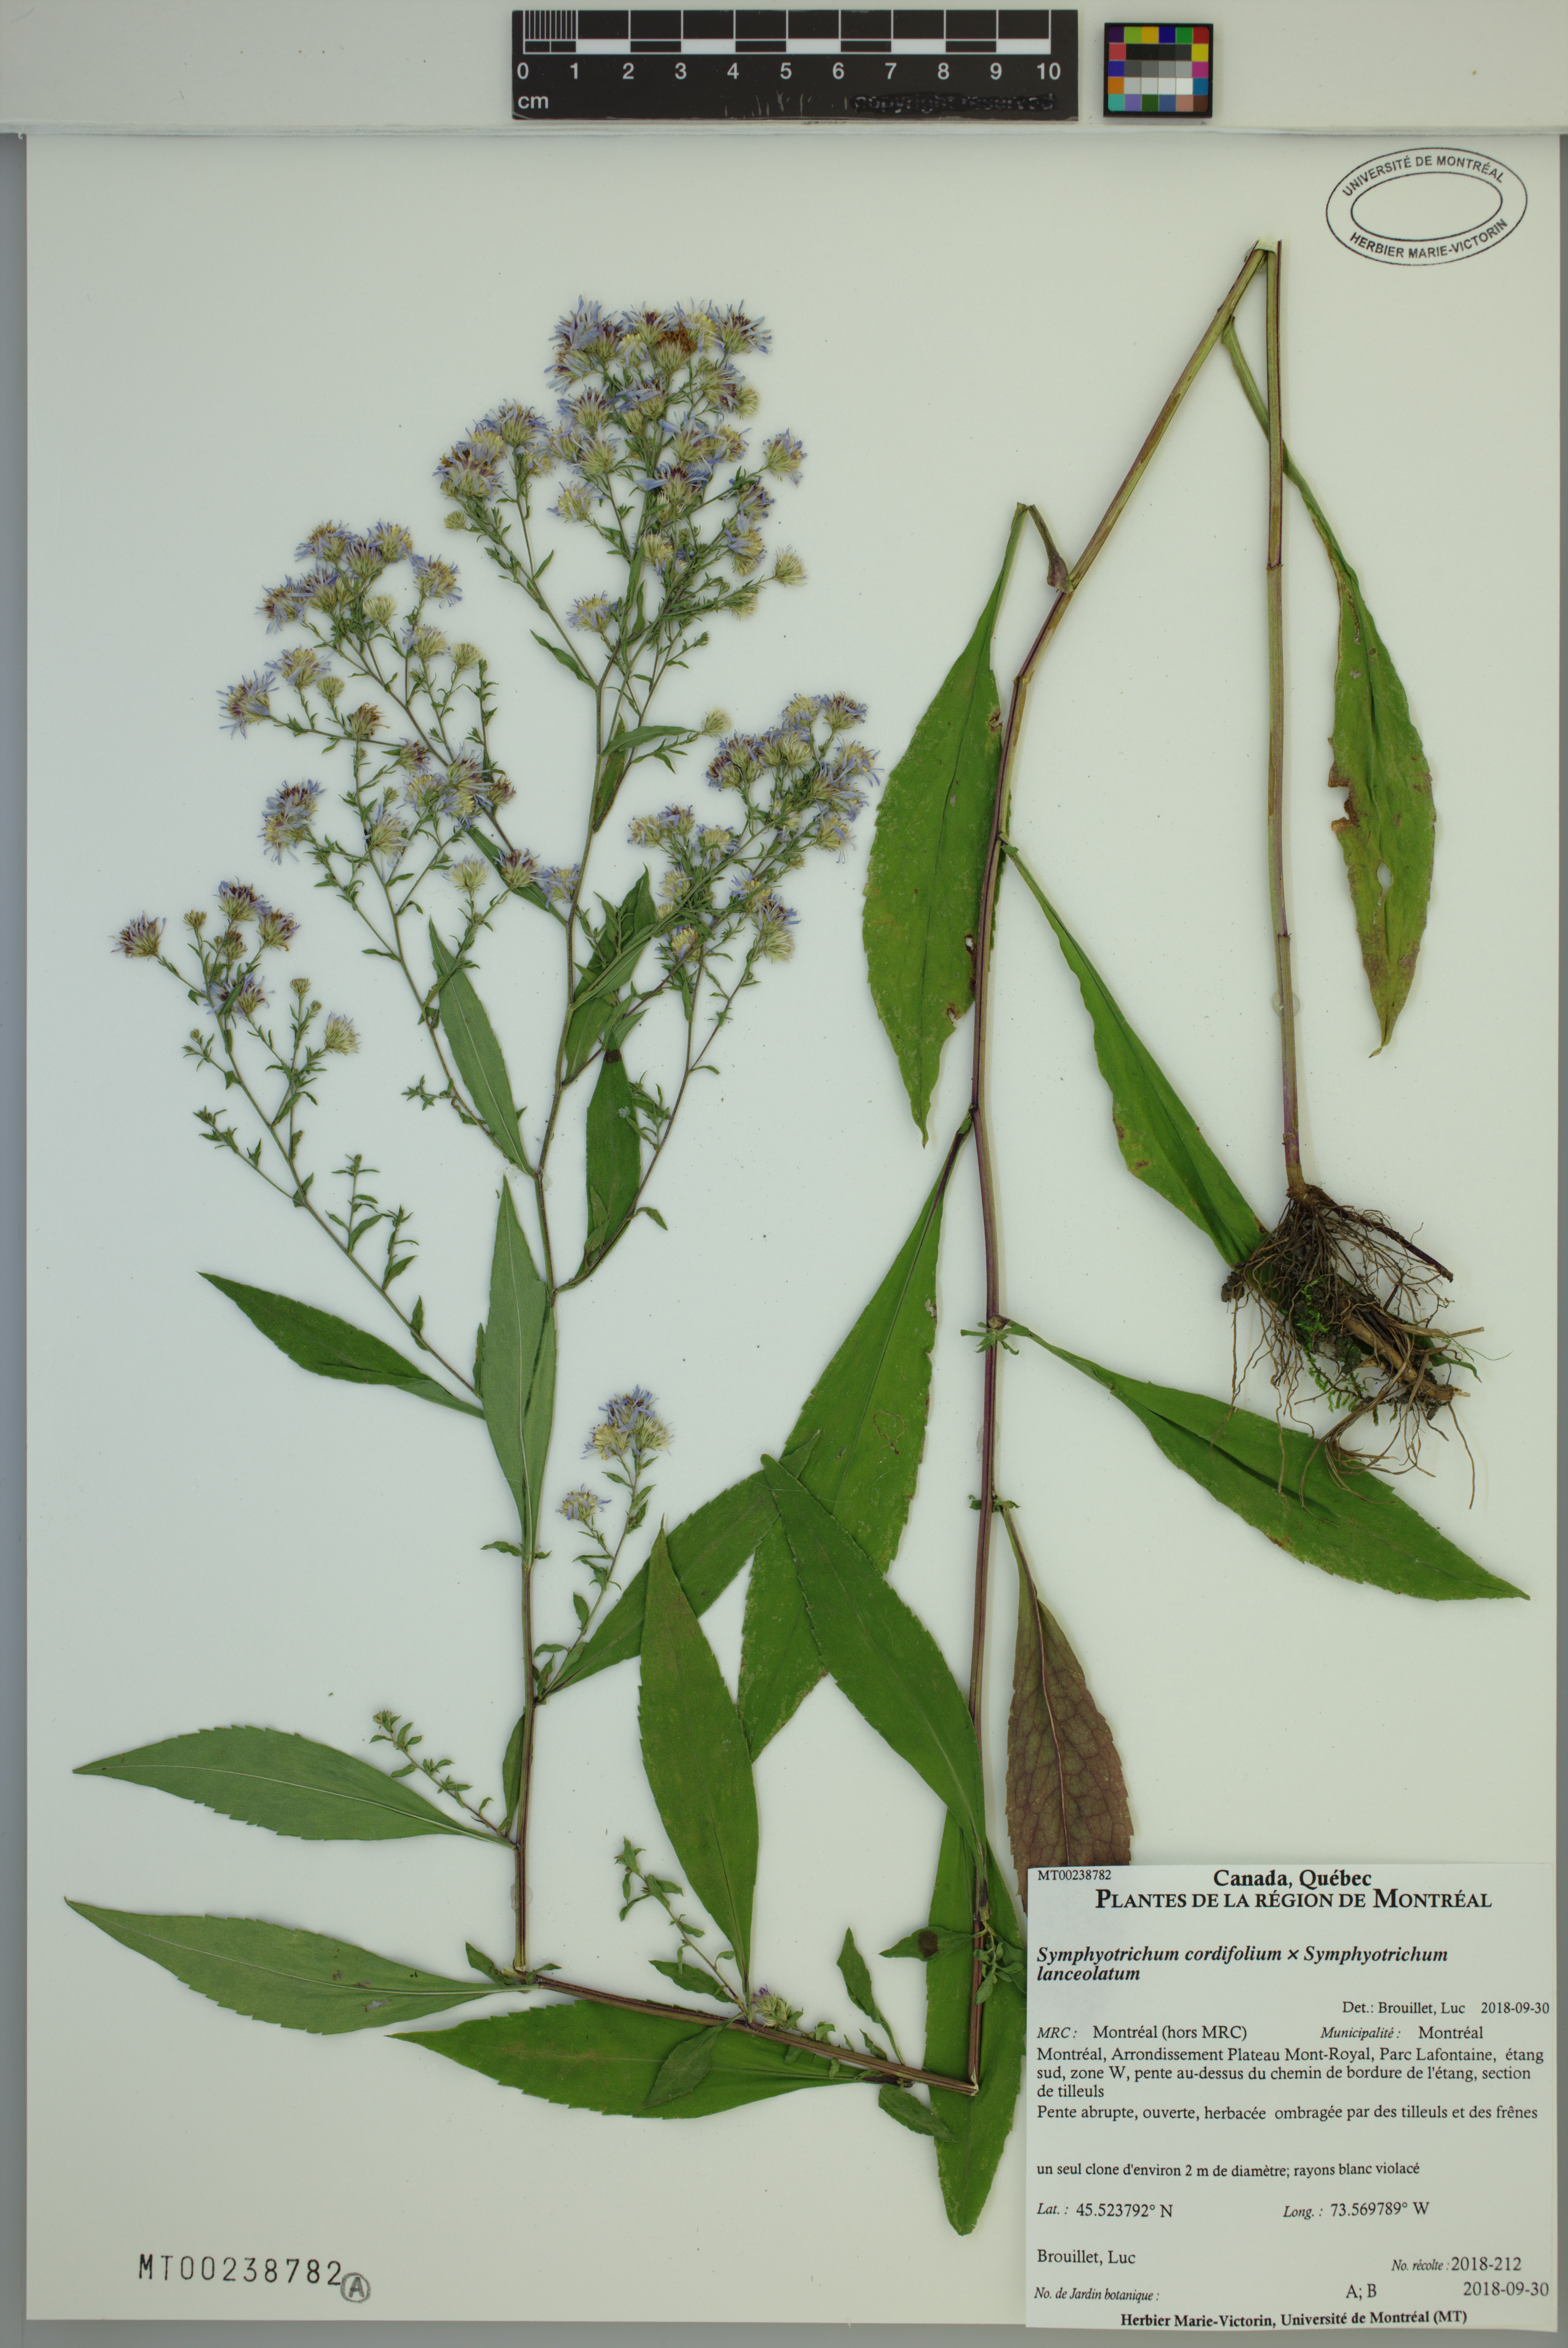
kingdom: Plantae
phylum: Tracheophyta
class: Magnoliopsida
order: Asterales
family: Asteraceae
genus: Symphyotrichum
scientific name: Symphyotrichum cordifolium
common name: Beeweed
